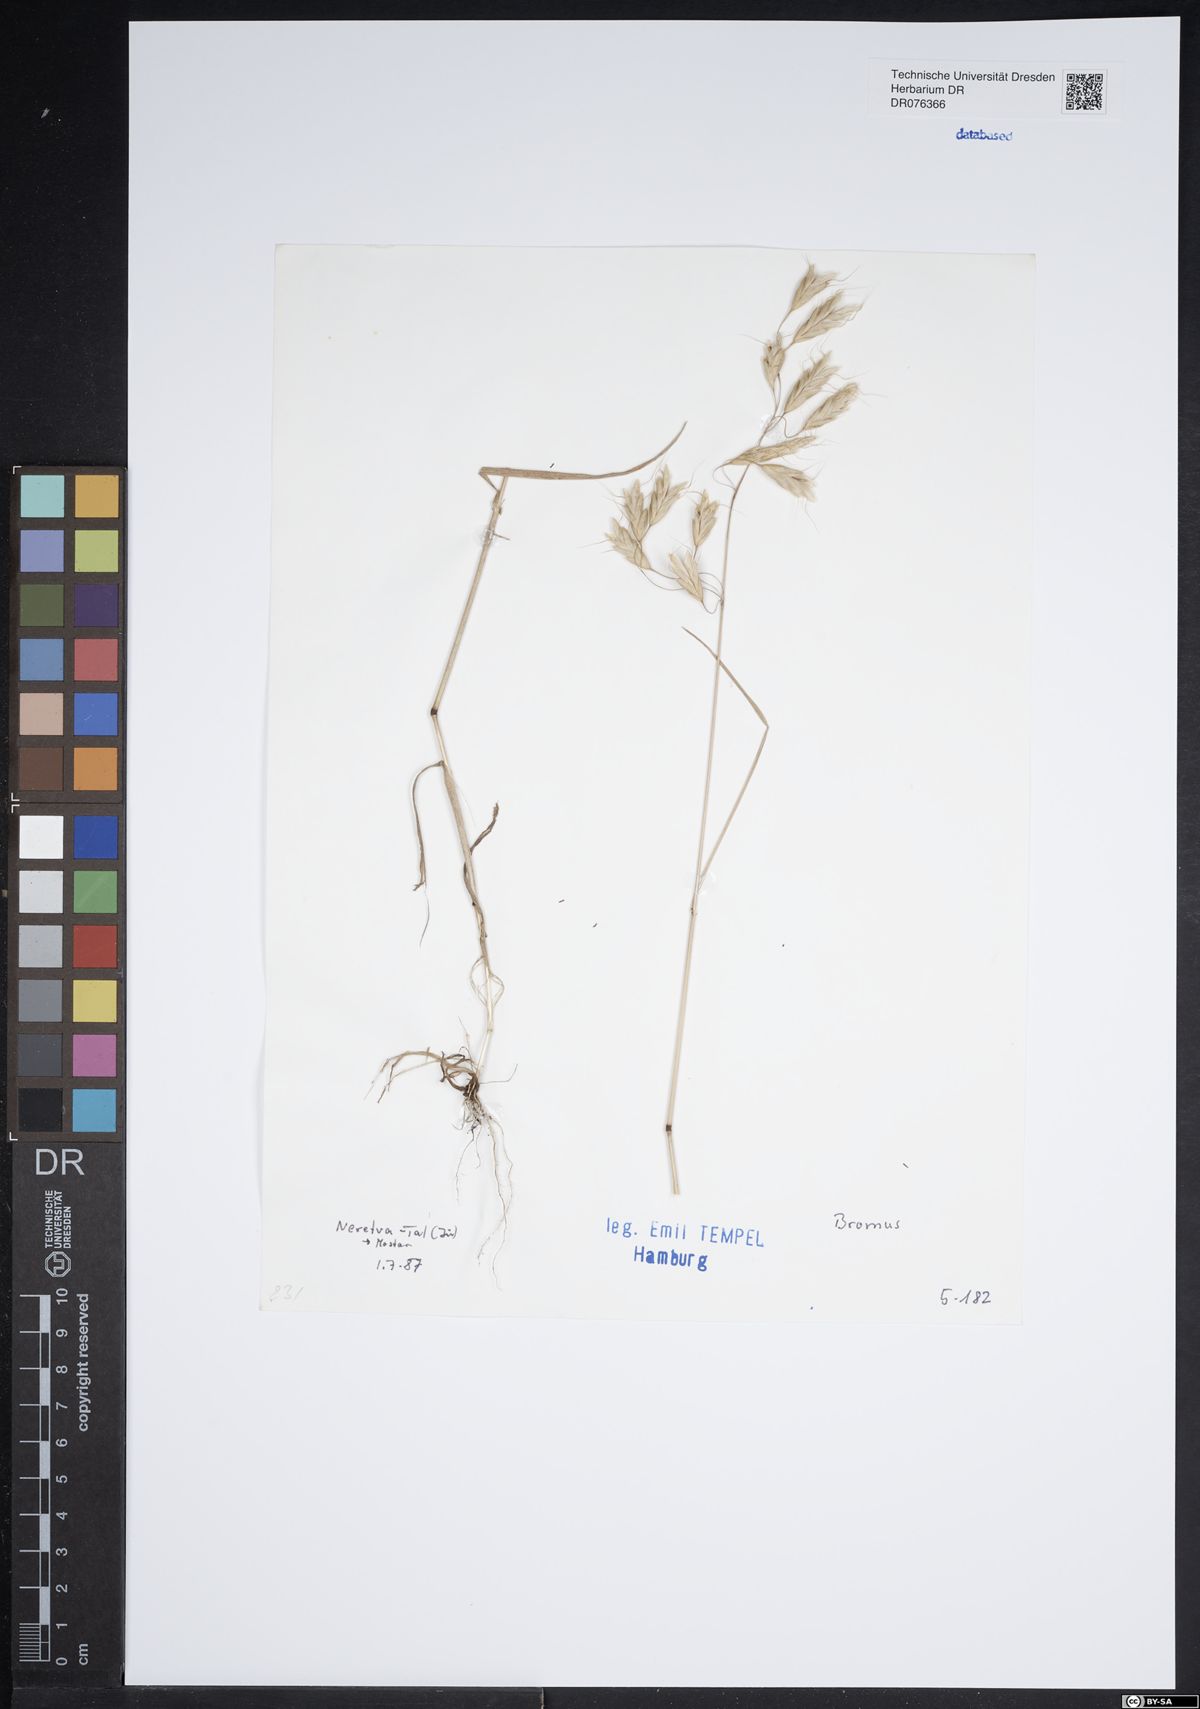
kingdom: Plantae
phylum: Tracheophyta
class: Liliopsida
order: Poales
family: Poaceae
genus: Bromus
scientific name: Bromus
